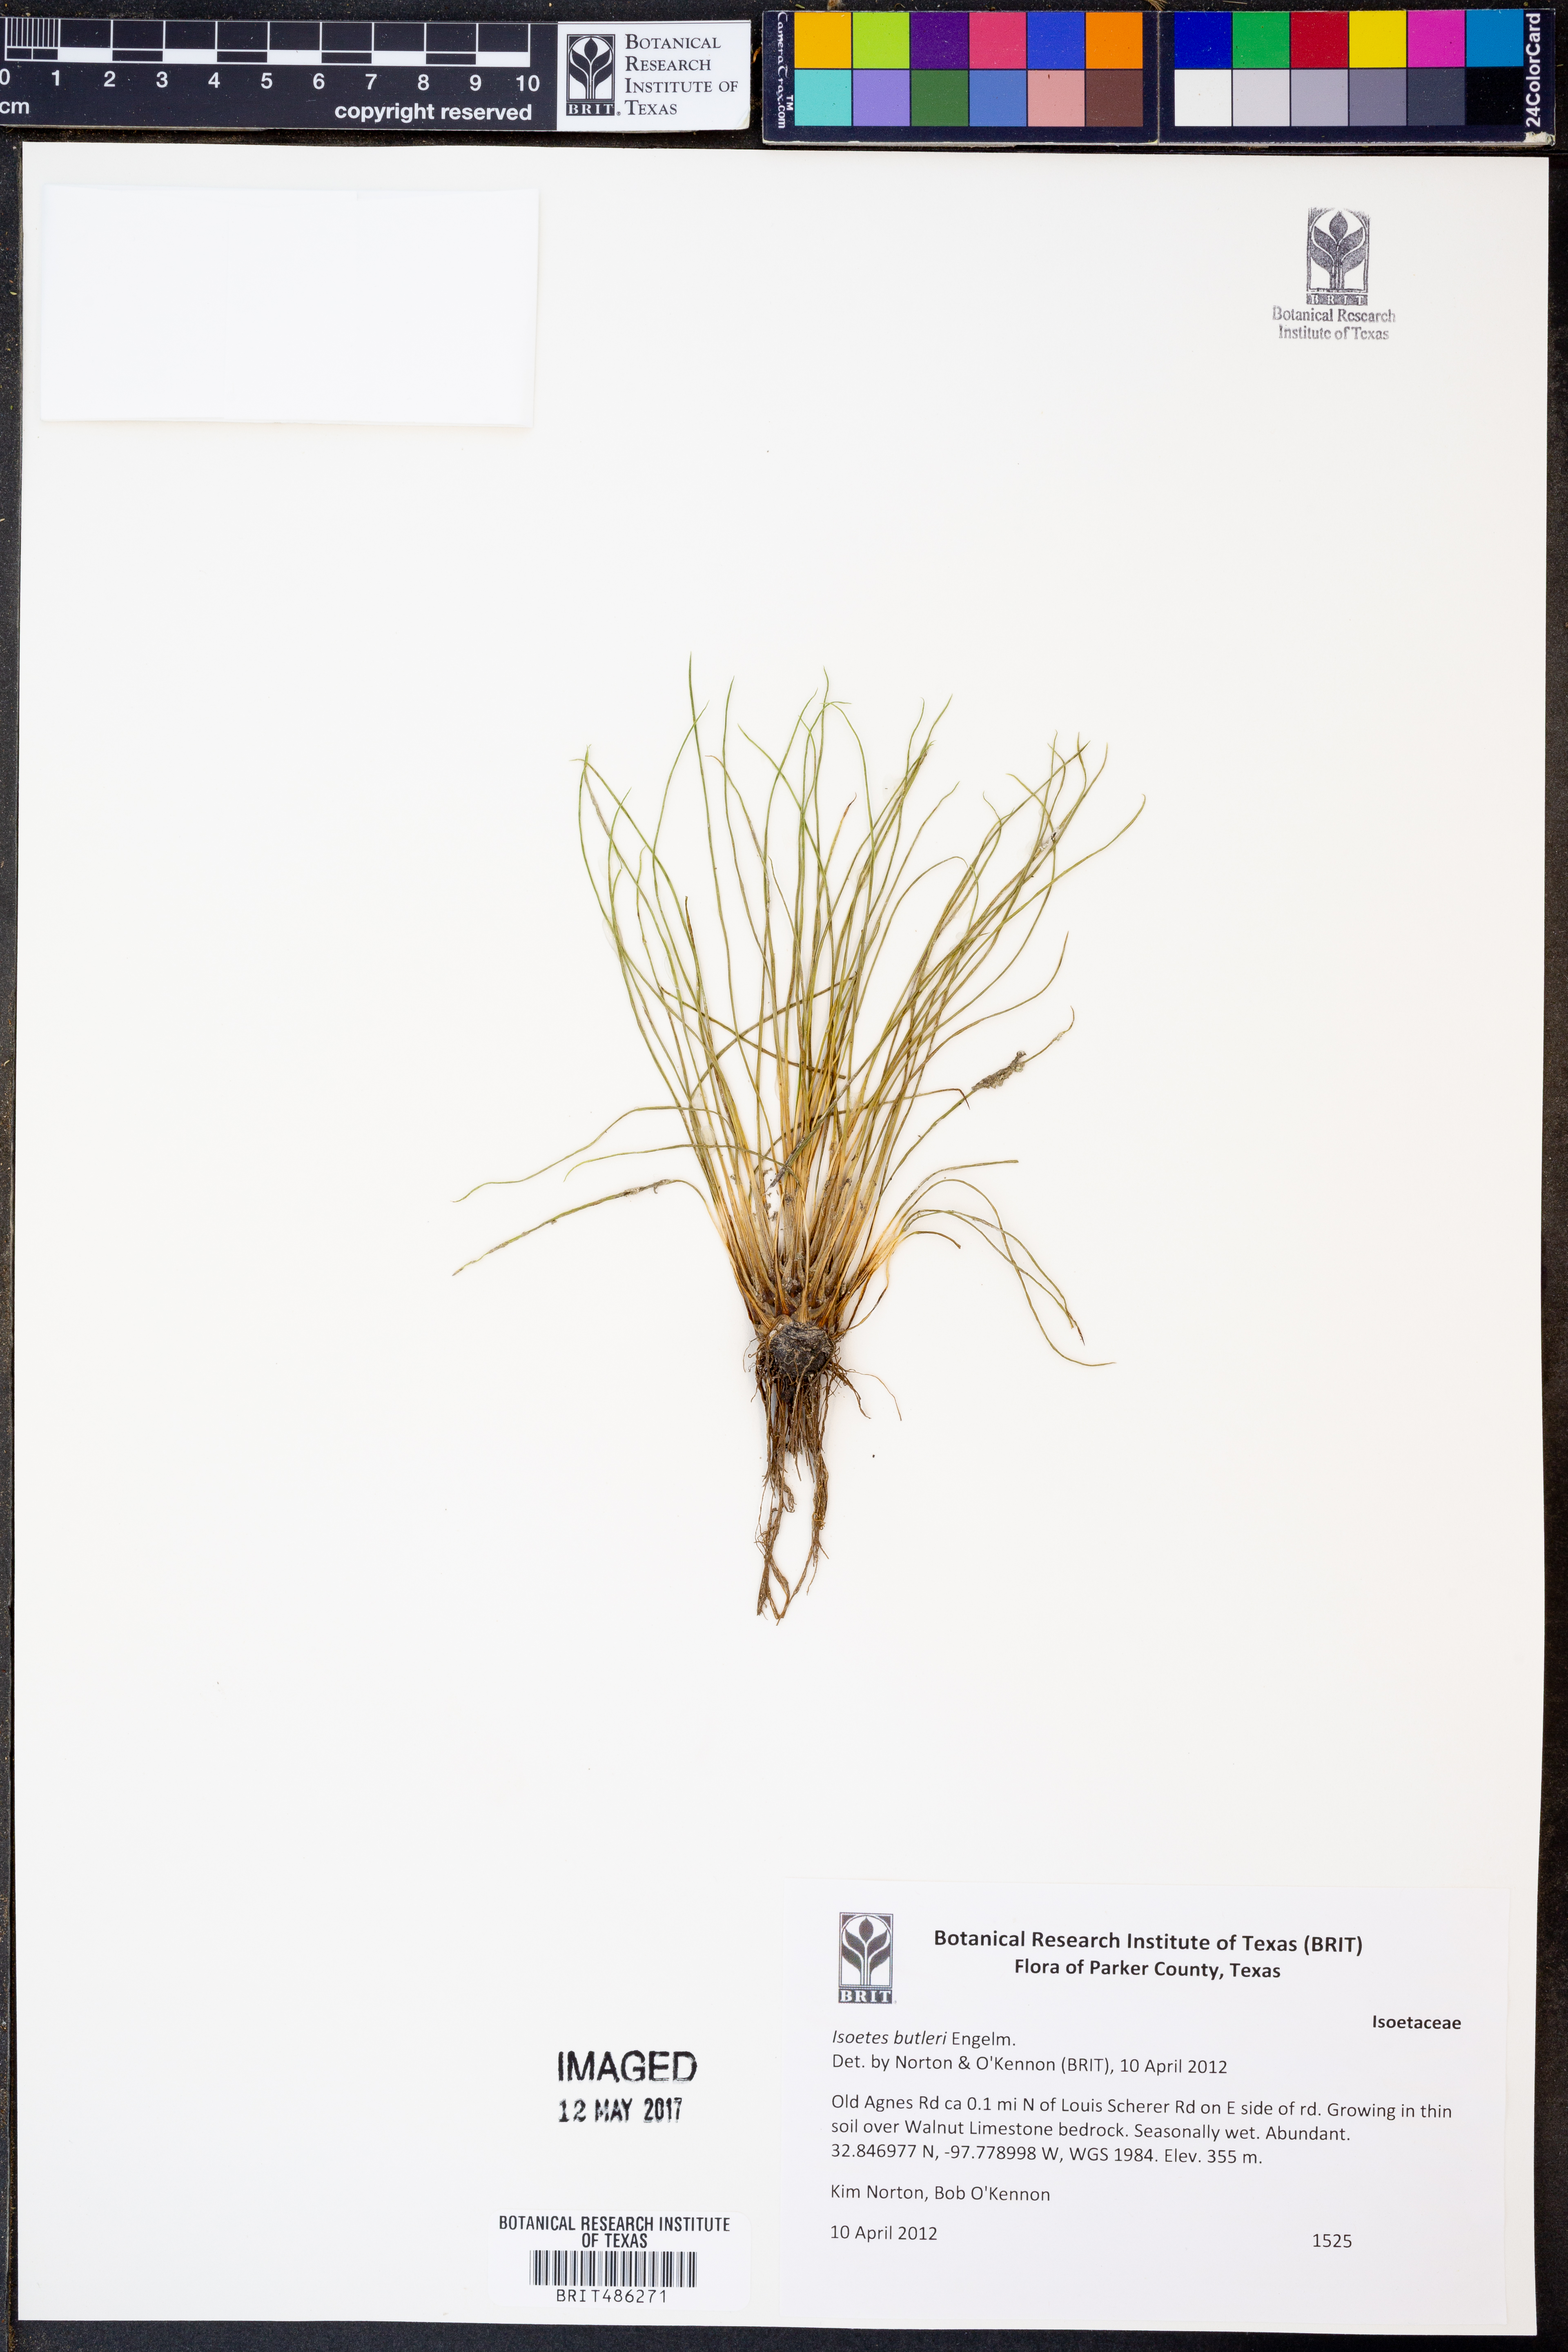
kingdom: Plantae
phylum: Tracheophyta
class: Lycopodiopsida
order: Isoetales
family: Isoetaceae
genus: Isoetes
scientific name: Isoetes butleri
